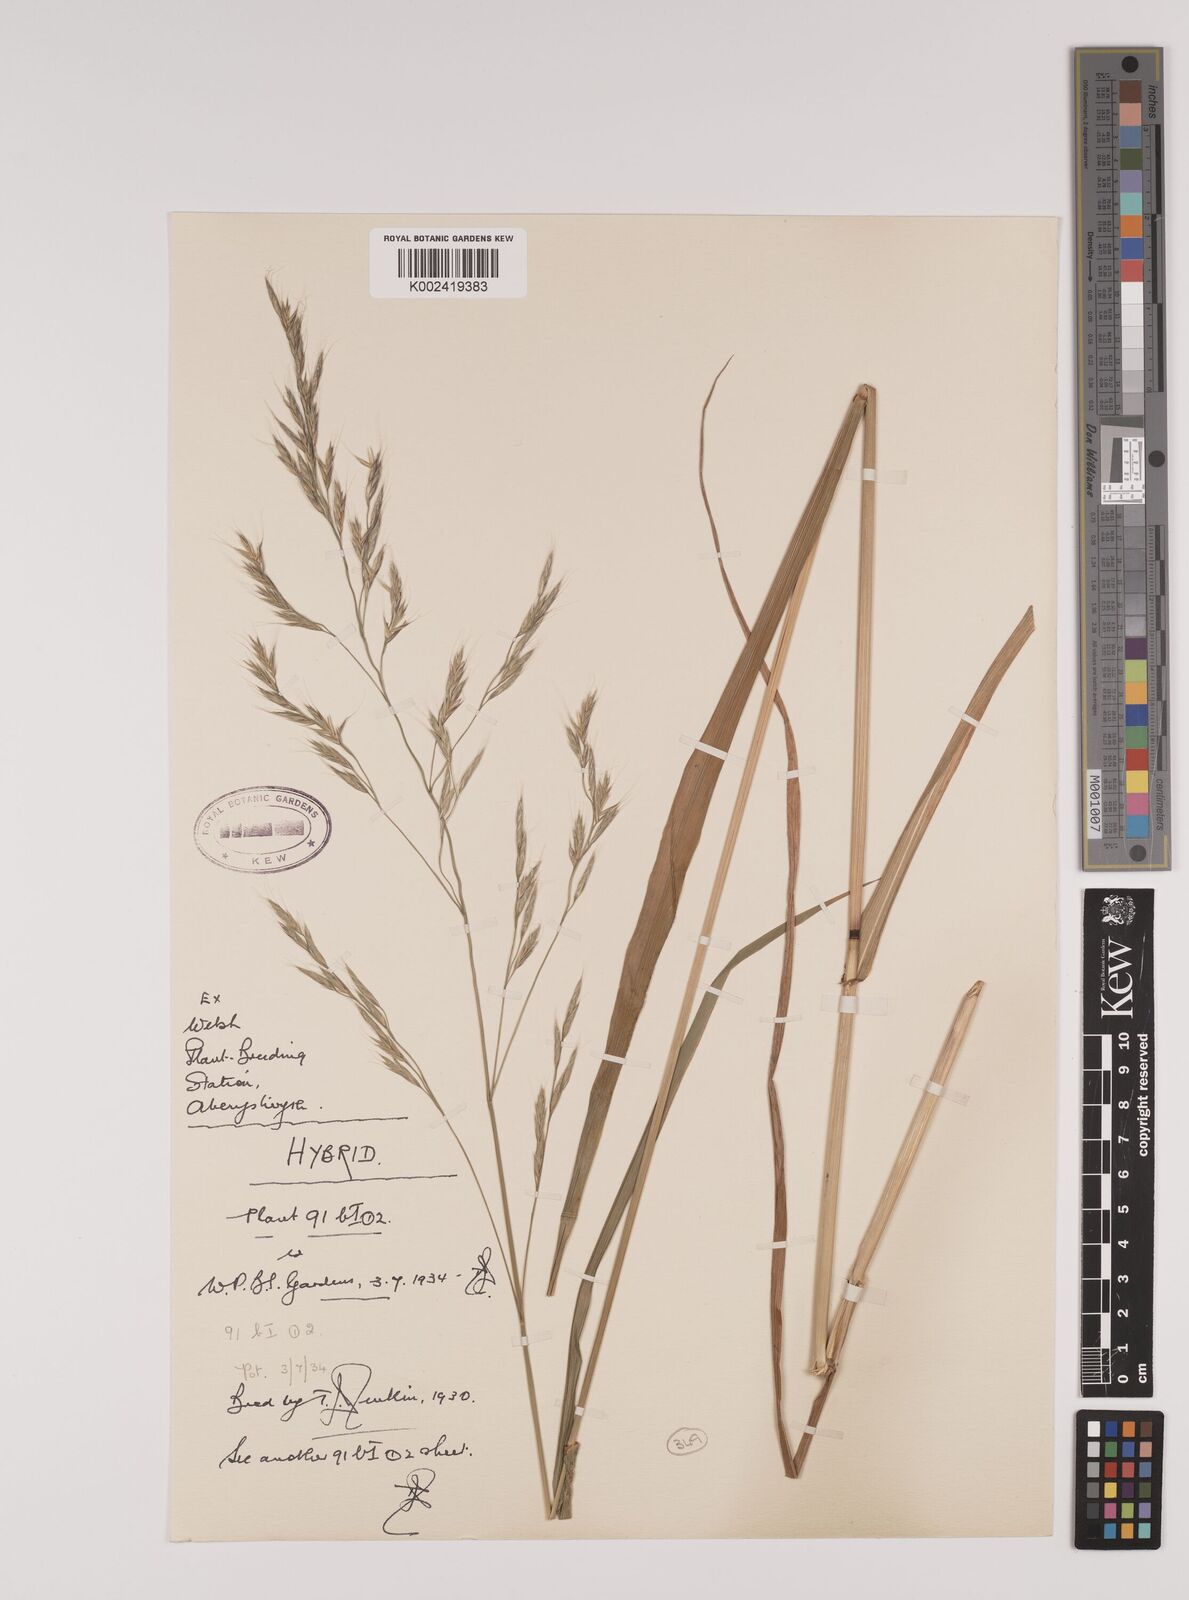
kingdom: Plantae
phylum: Tracheophyta
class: Liliopsida
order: Poales
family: Poaceae
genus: Lolium
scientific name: Lolium giganteum
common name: Giant fescue
